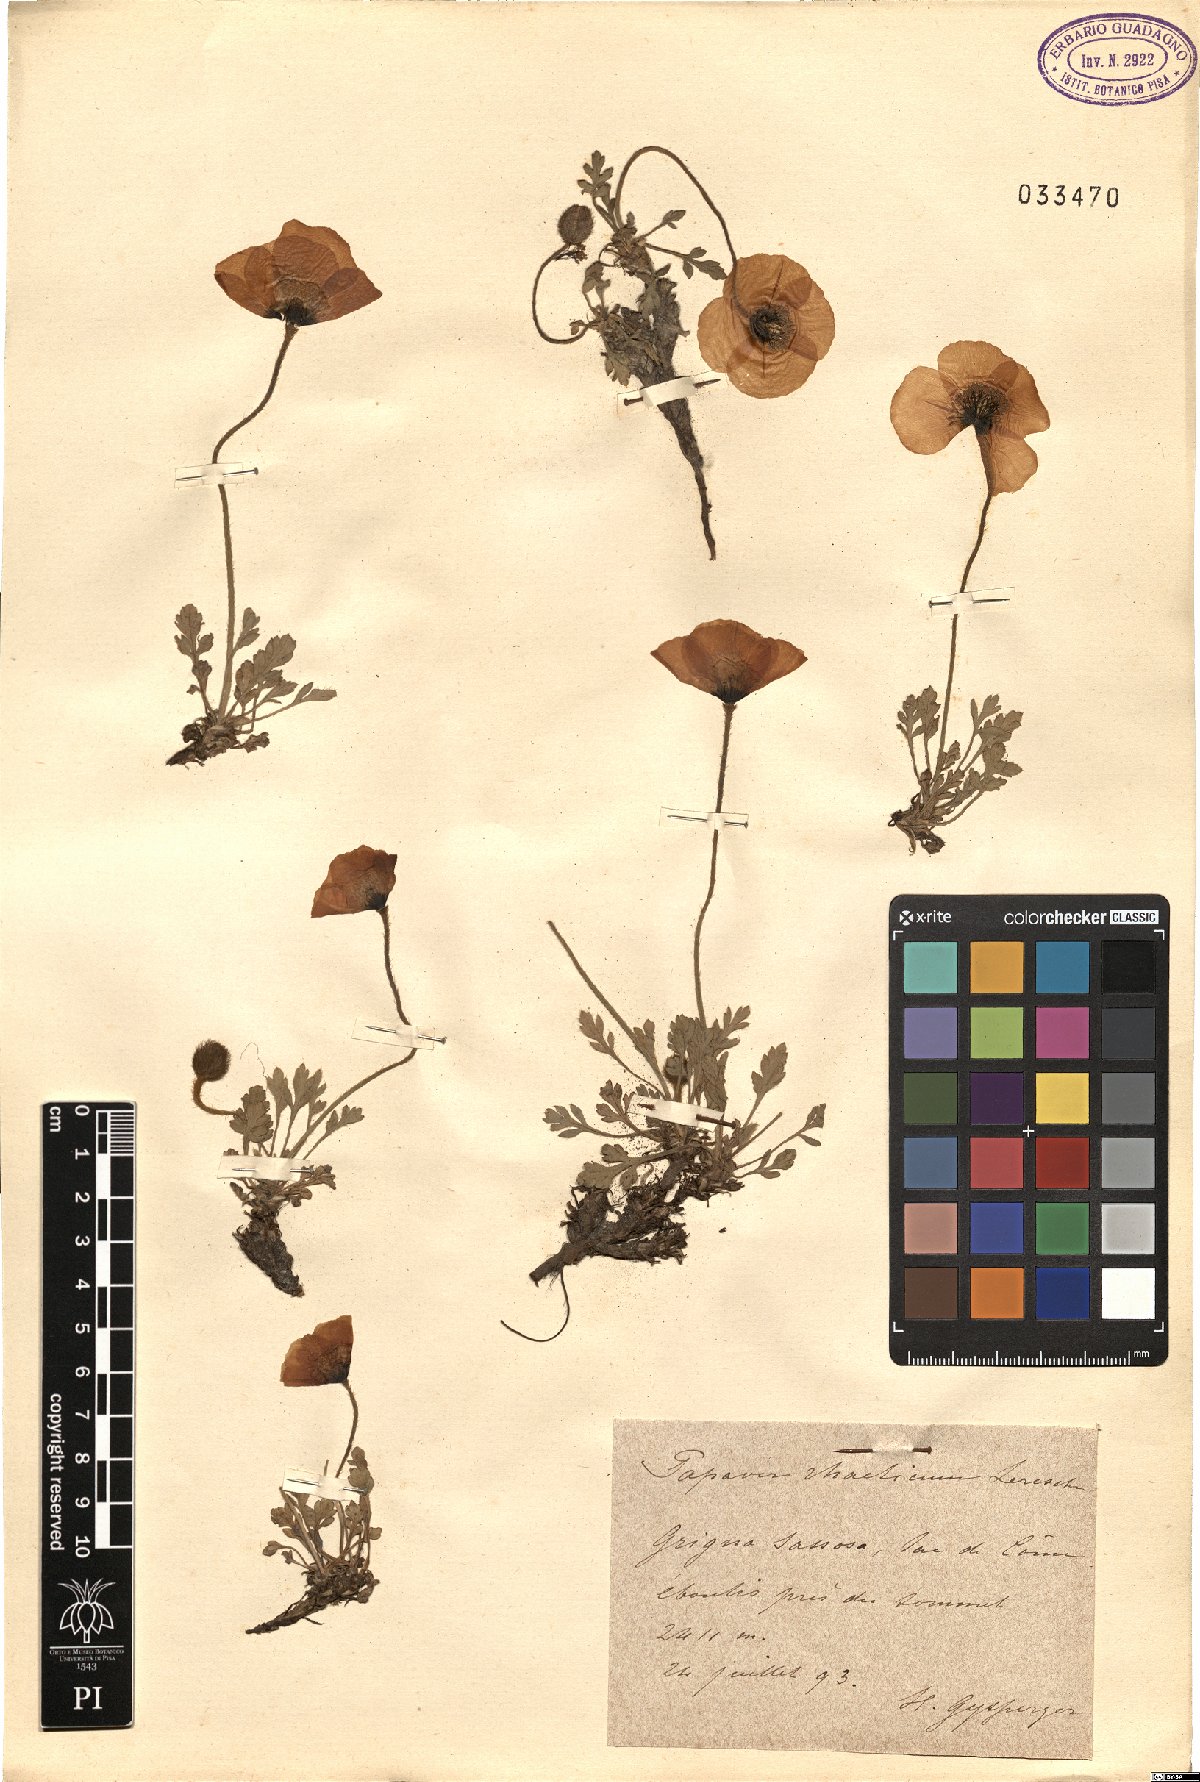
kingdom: Plantae
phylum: Tracheophyta
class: Magnoliopsida
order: Ranunculales
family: Papaveraceae
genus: Papaver
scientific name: Papaver alpinum
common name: Austrian poppy
